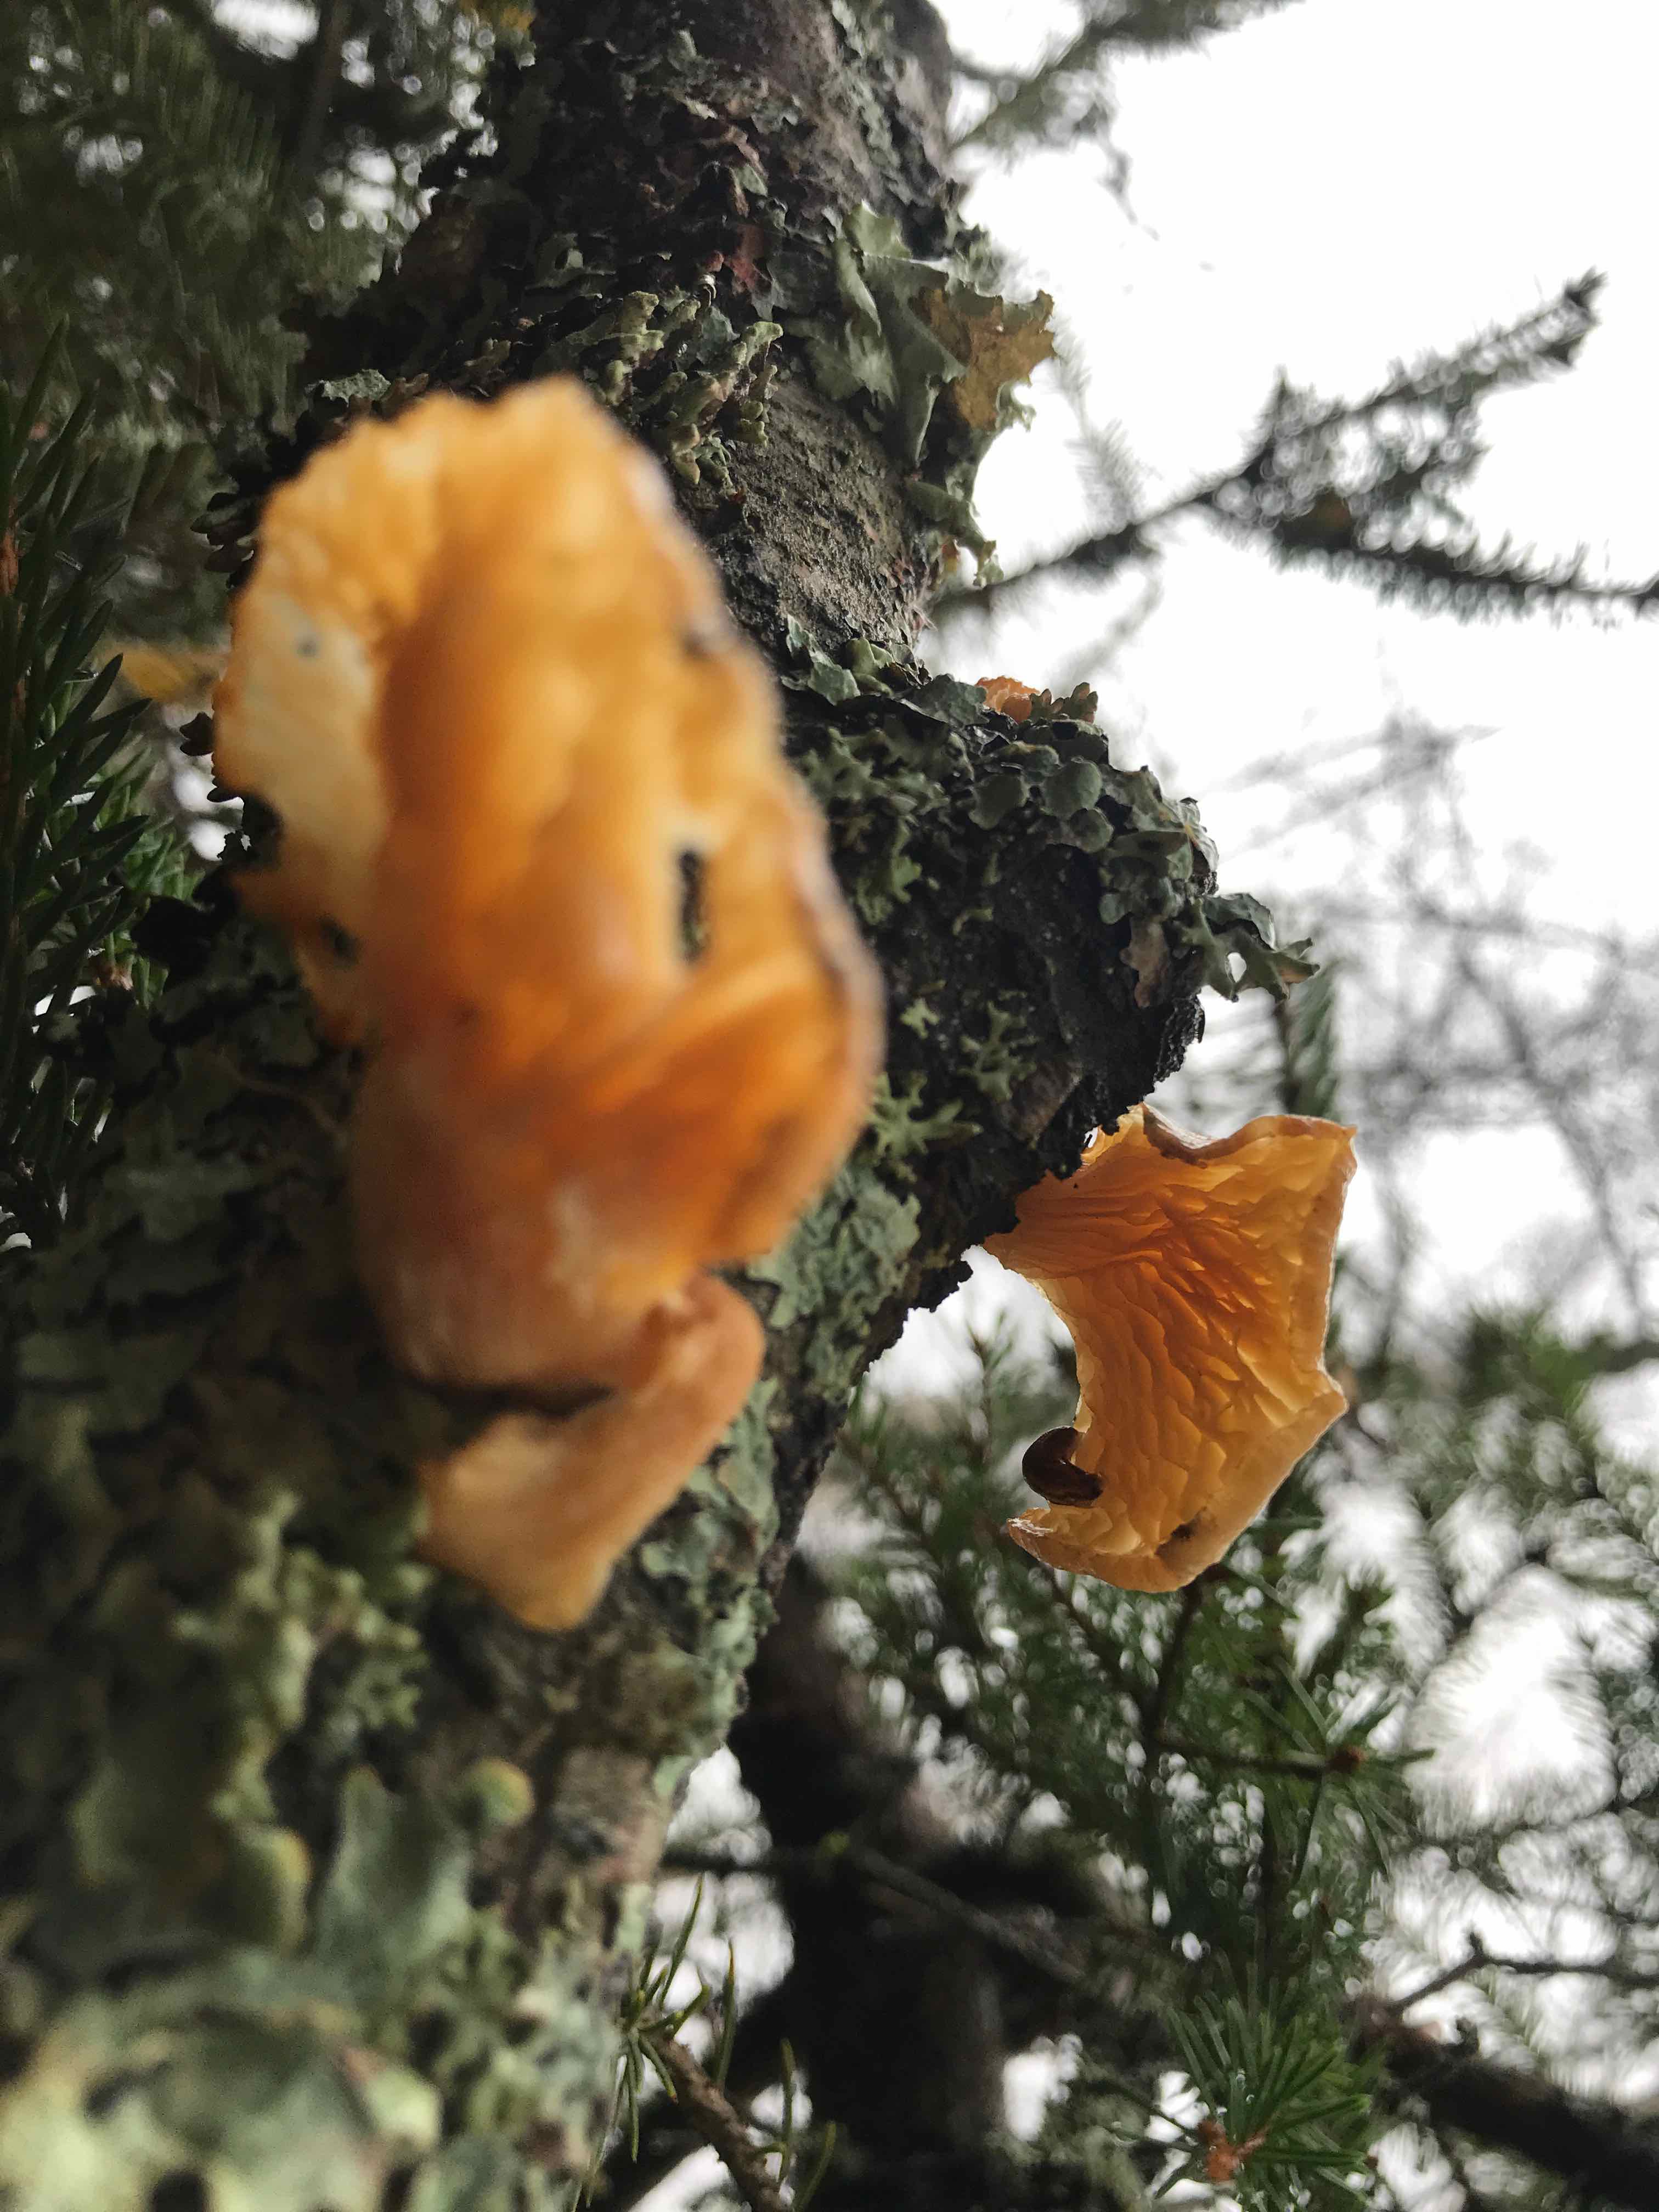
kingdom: Fungi
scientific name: Fungi
